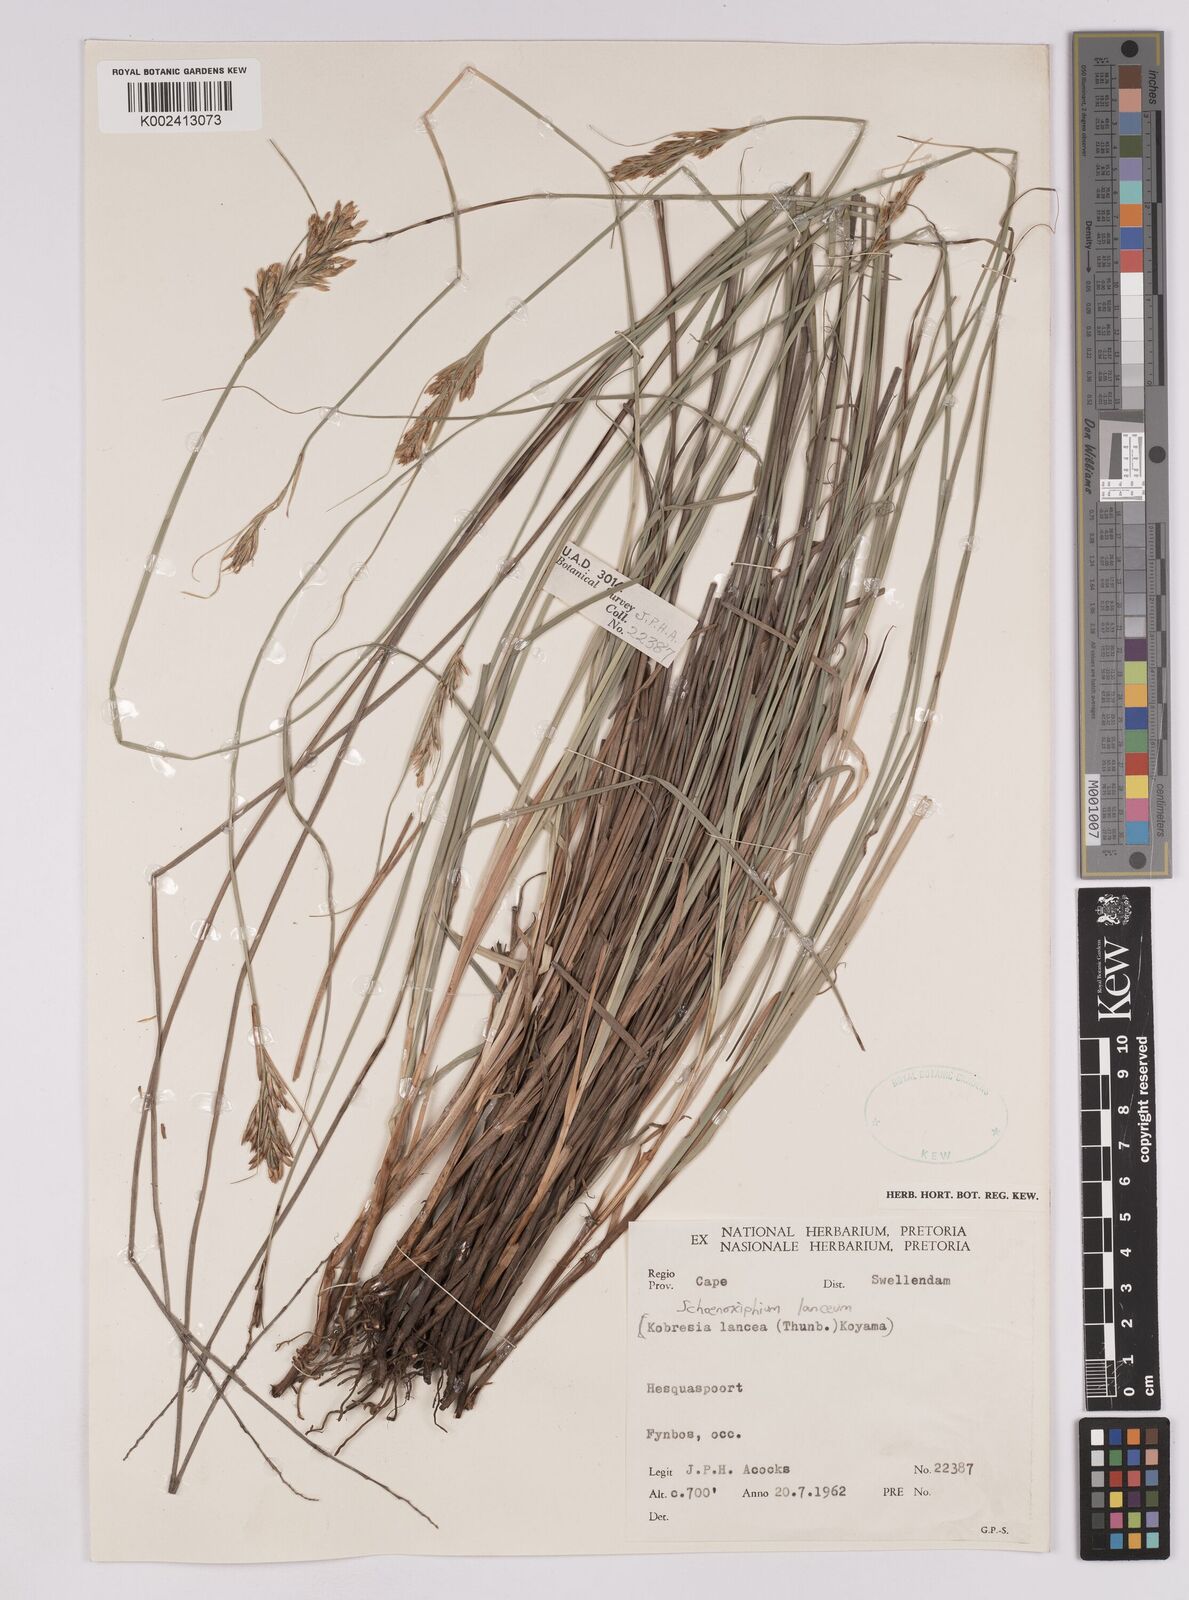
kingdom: Plantae
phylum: Tracheophyta
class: Liliopsida
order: Poales
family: Cyperaceae
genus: Carex
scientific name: Carex lancea
